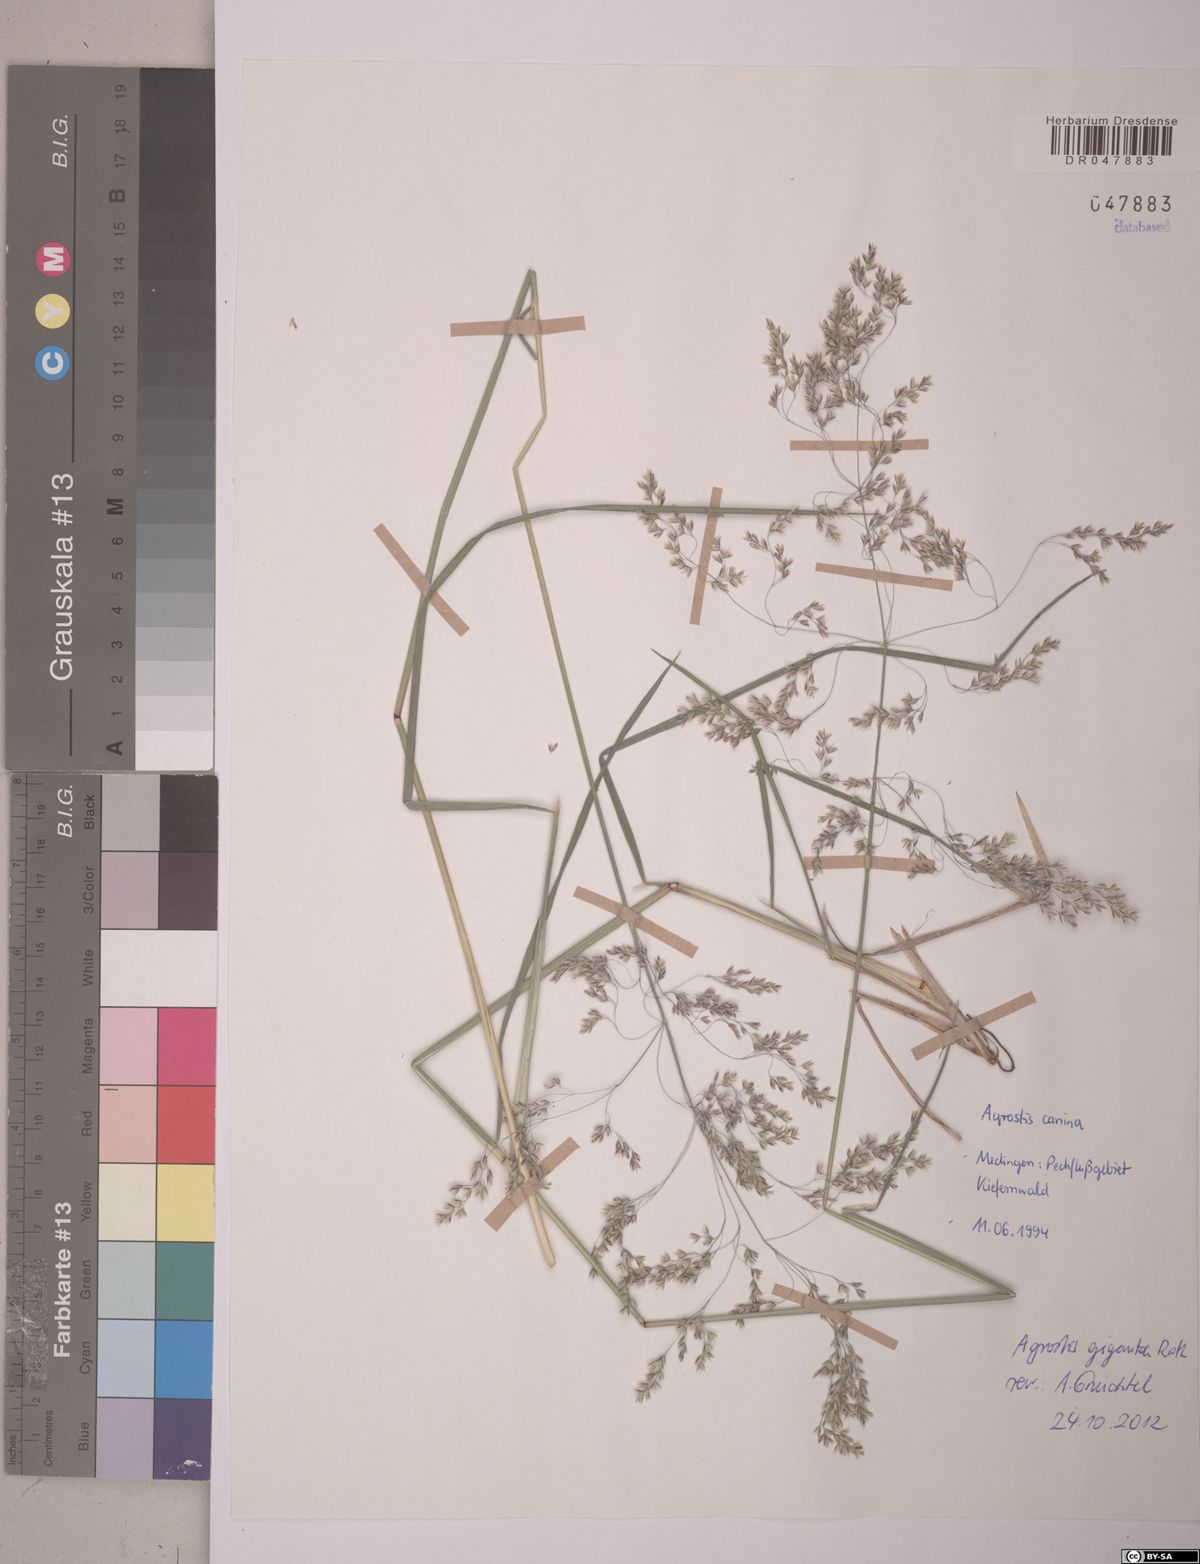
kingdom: Plantae
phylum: Tracheophyta
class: Liliopsida
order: Poales
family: Poaceae
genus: Agrostis
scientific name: Agrostis gigantea
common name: Black bent
